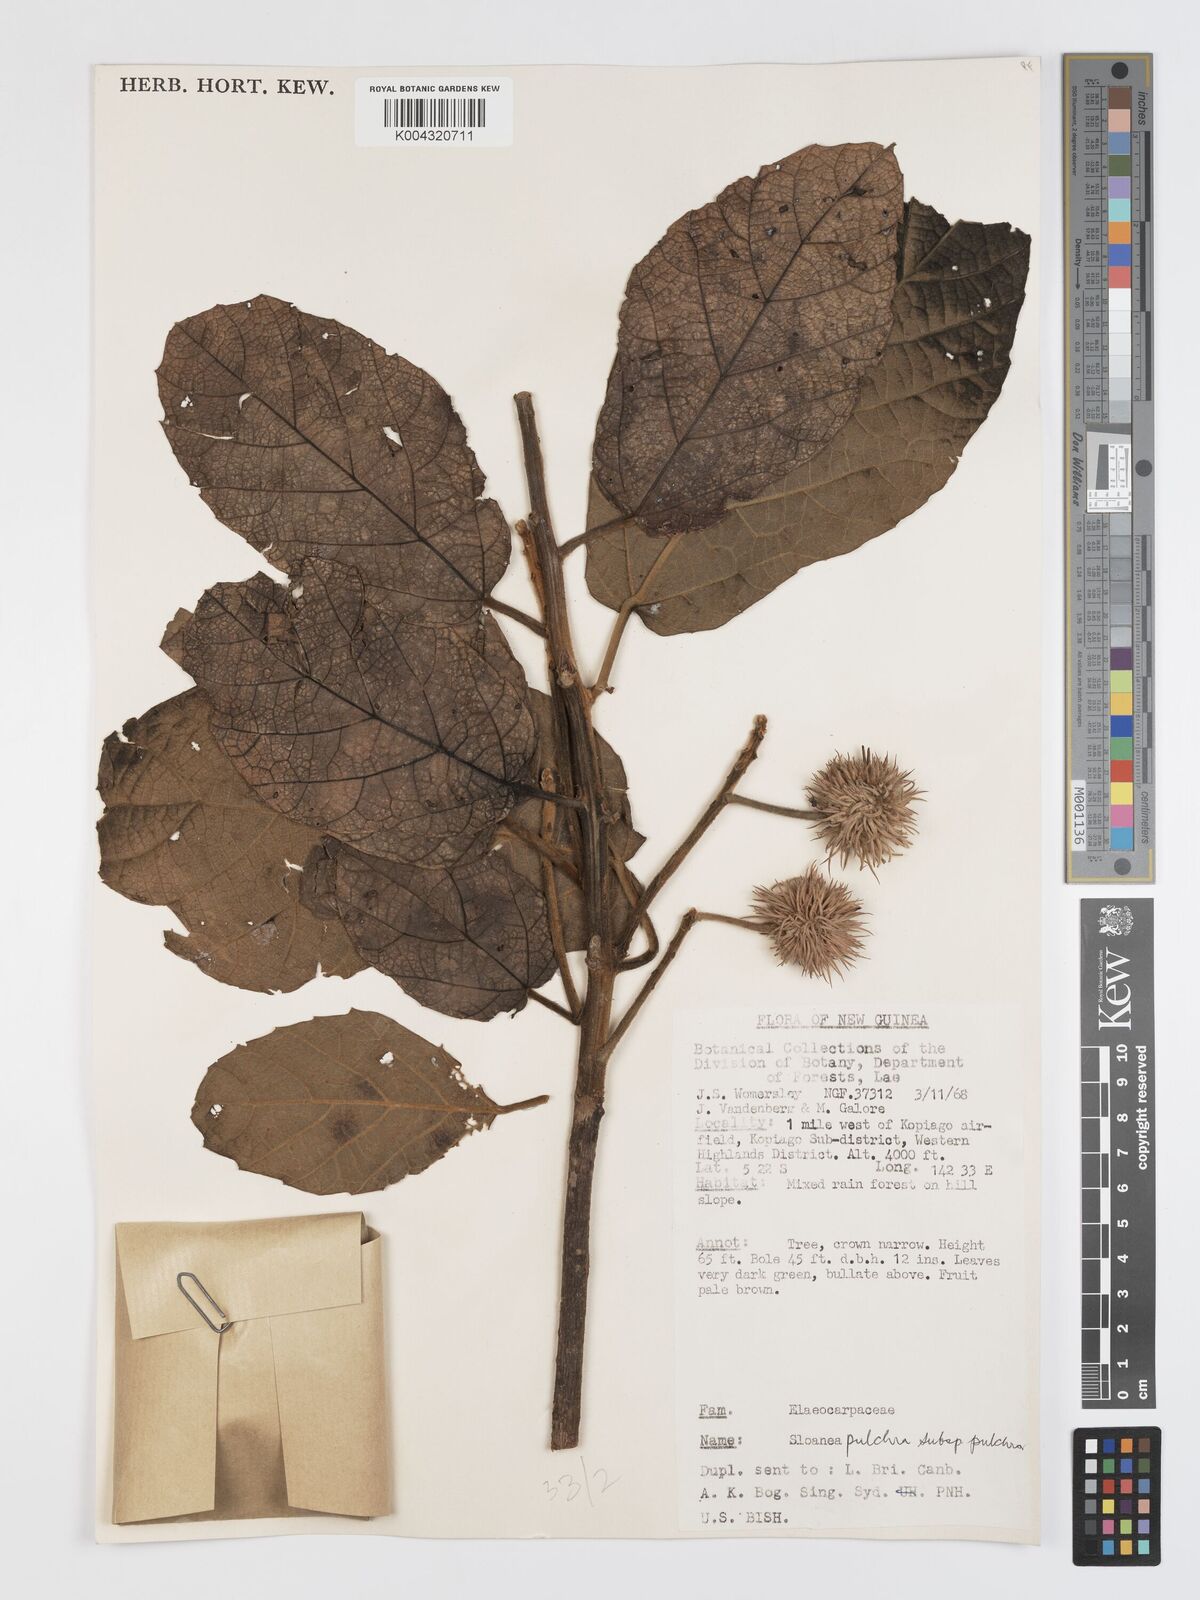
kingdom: Plantae
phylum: Tracheophyta
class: Magnoliopsida
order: Oxalidales
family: Elaeocarpaceae
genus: Sloanea
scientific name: Sloanea pulchra
